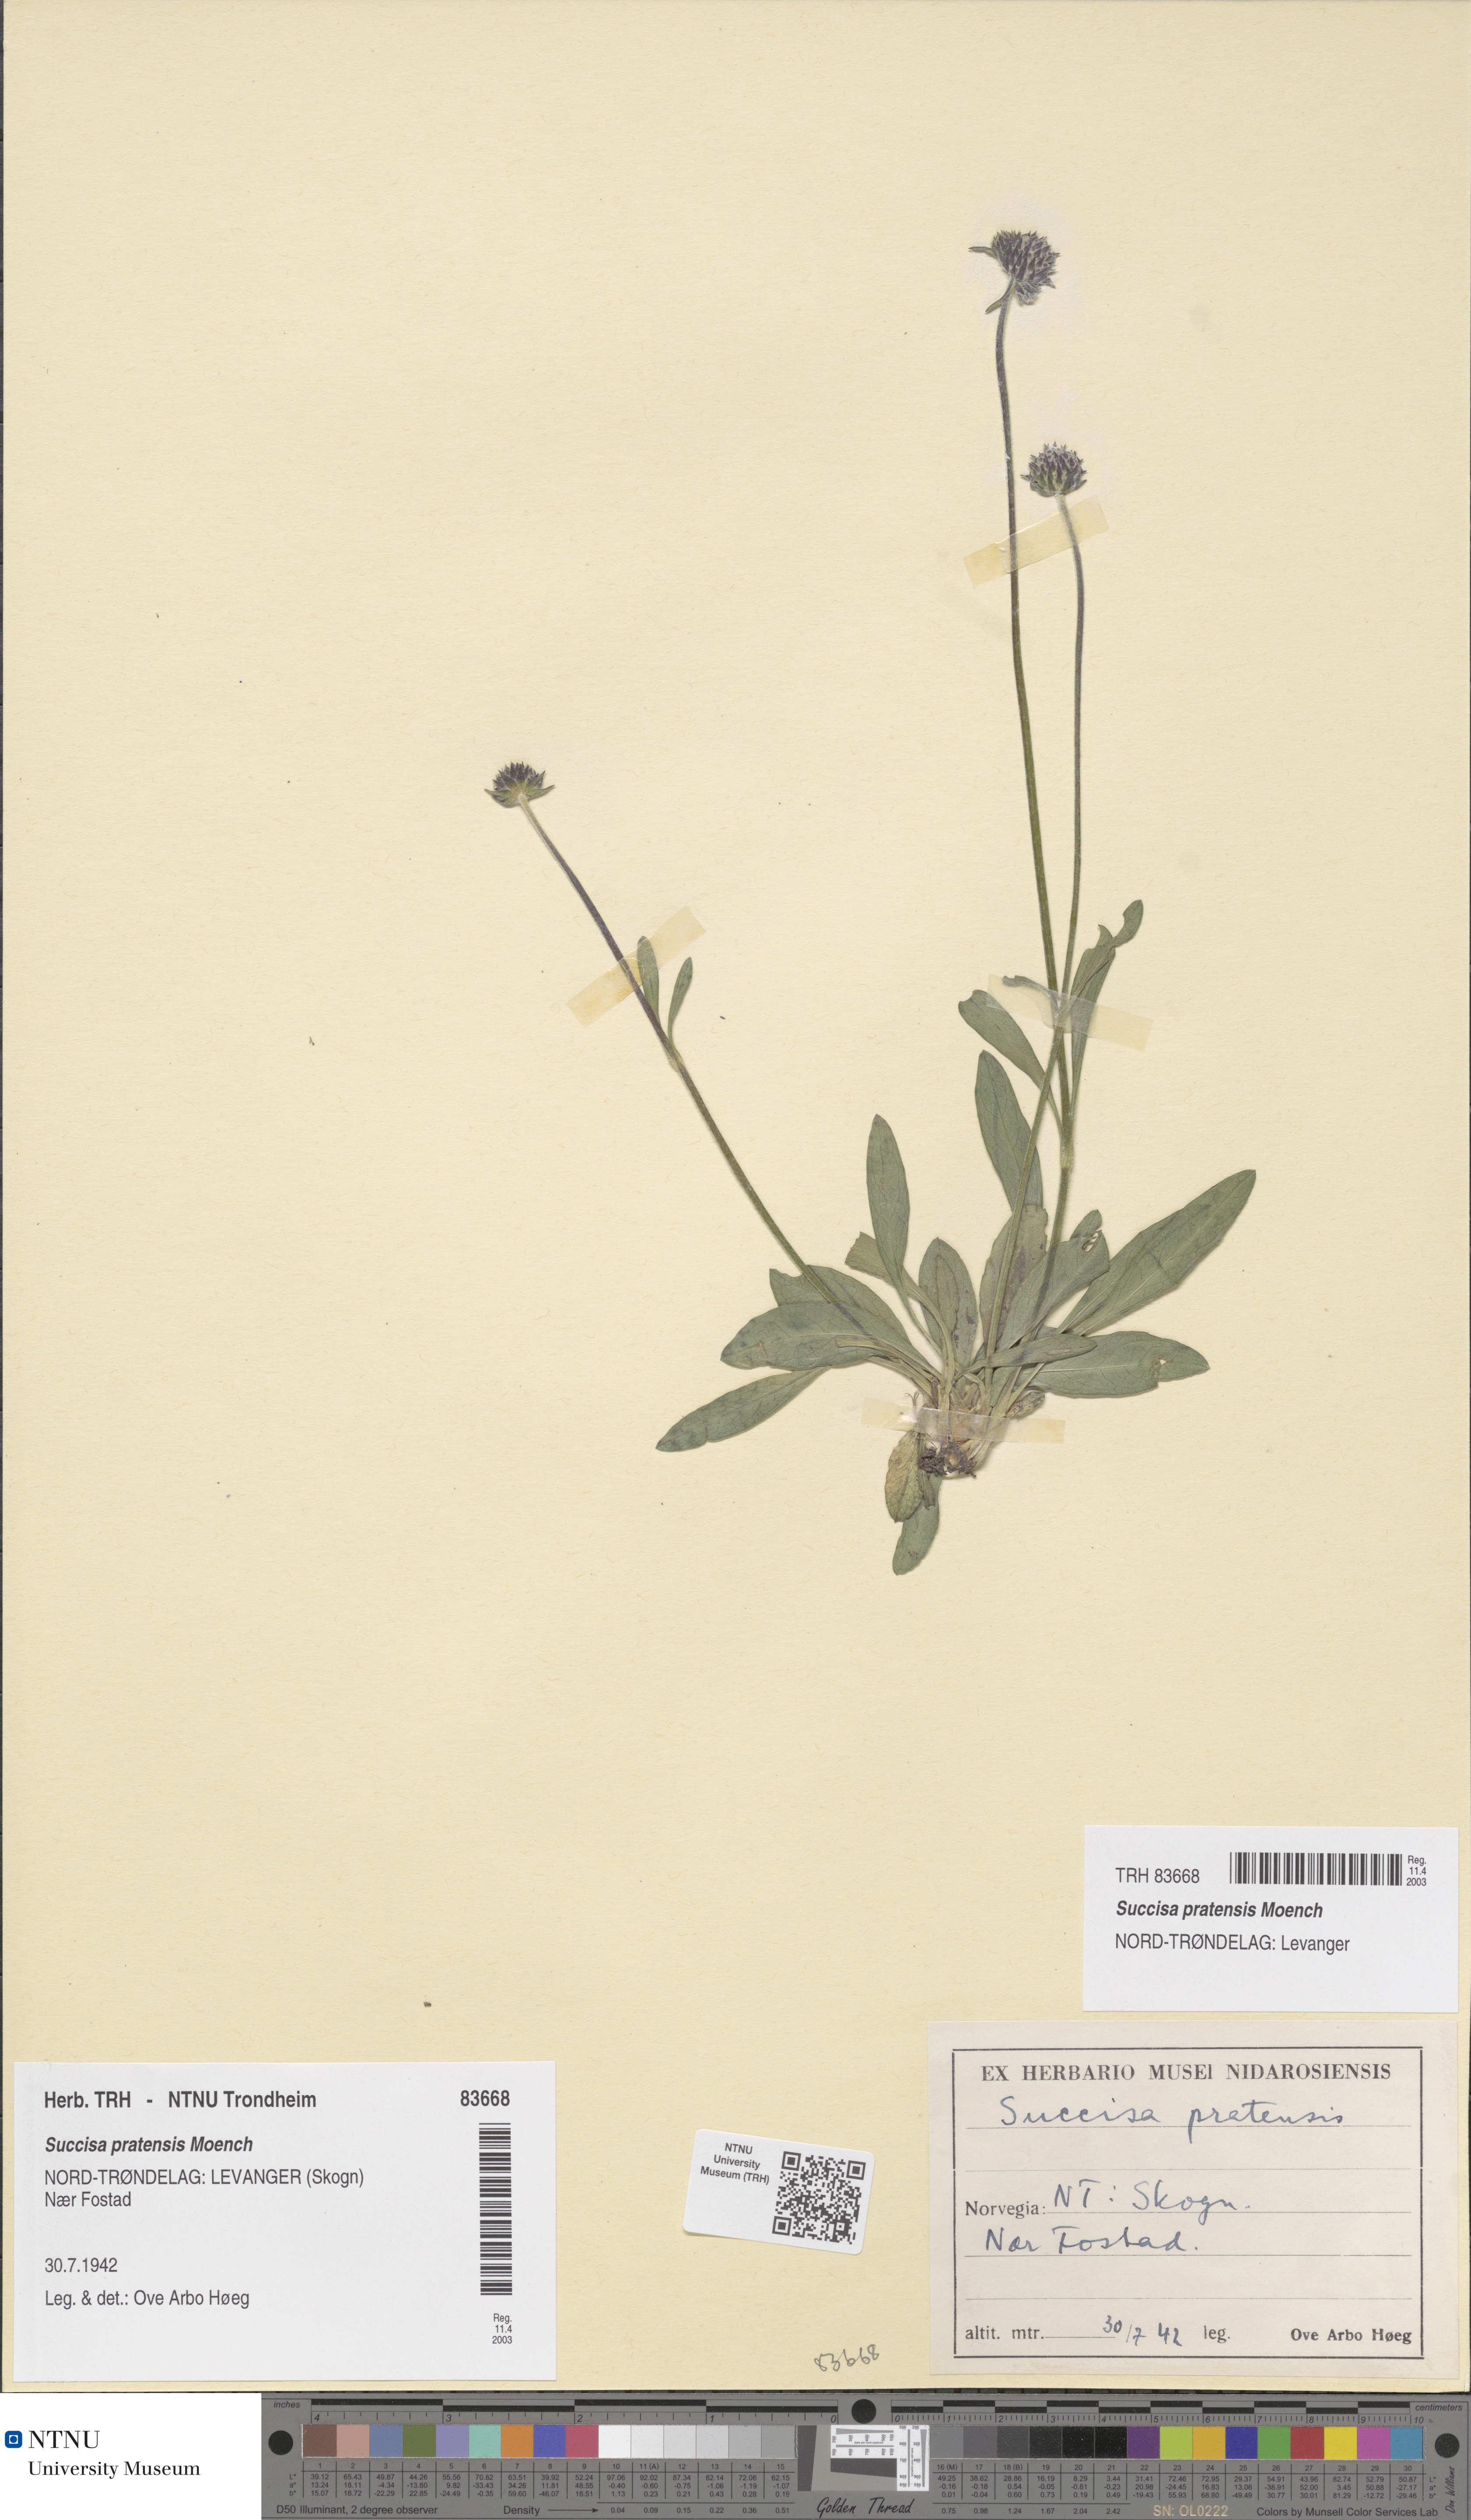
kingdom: Plantae
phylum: Tracheophyta
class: Magnoliopsida
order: Dipsacales
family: Caprifoliaceae
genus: Succisa
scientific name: Succisa pratensis
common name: Devil's-bit
